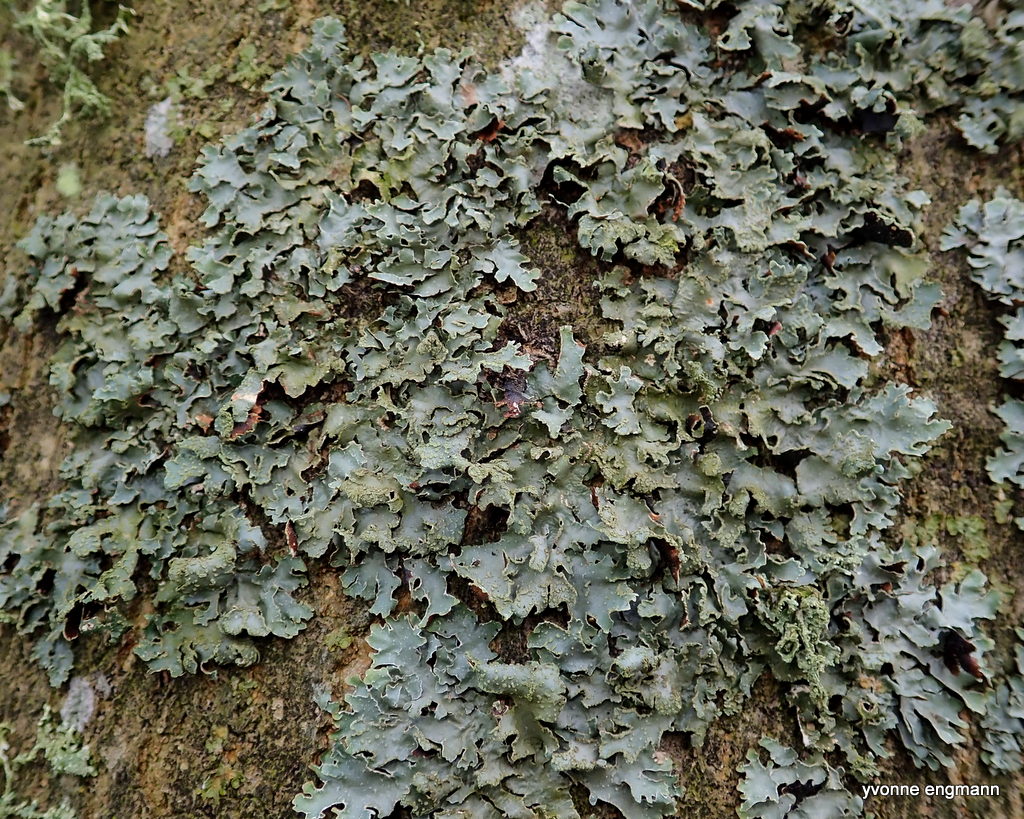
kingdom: Fungi
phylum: Ascomycota
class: Lecanoromycetes
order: Lecanorales
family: Parmeliaceae
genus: Parmelia
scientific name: Parmelia sulcata
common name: rynket skållav
